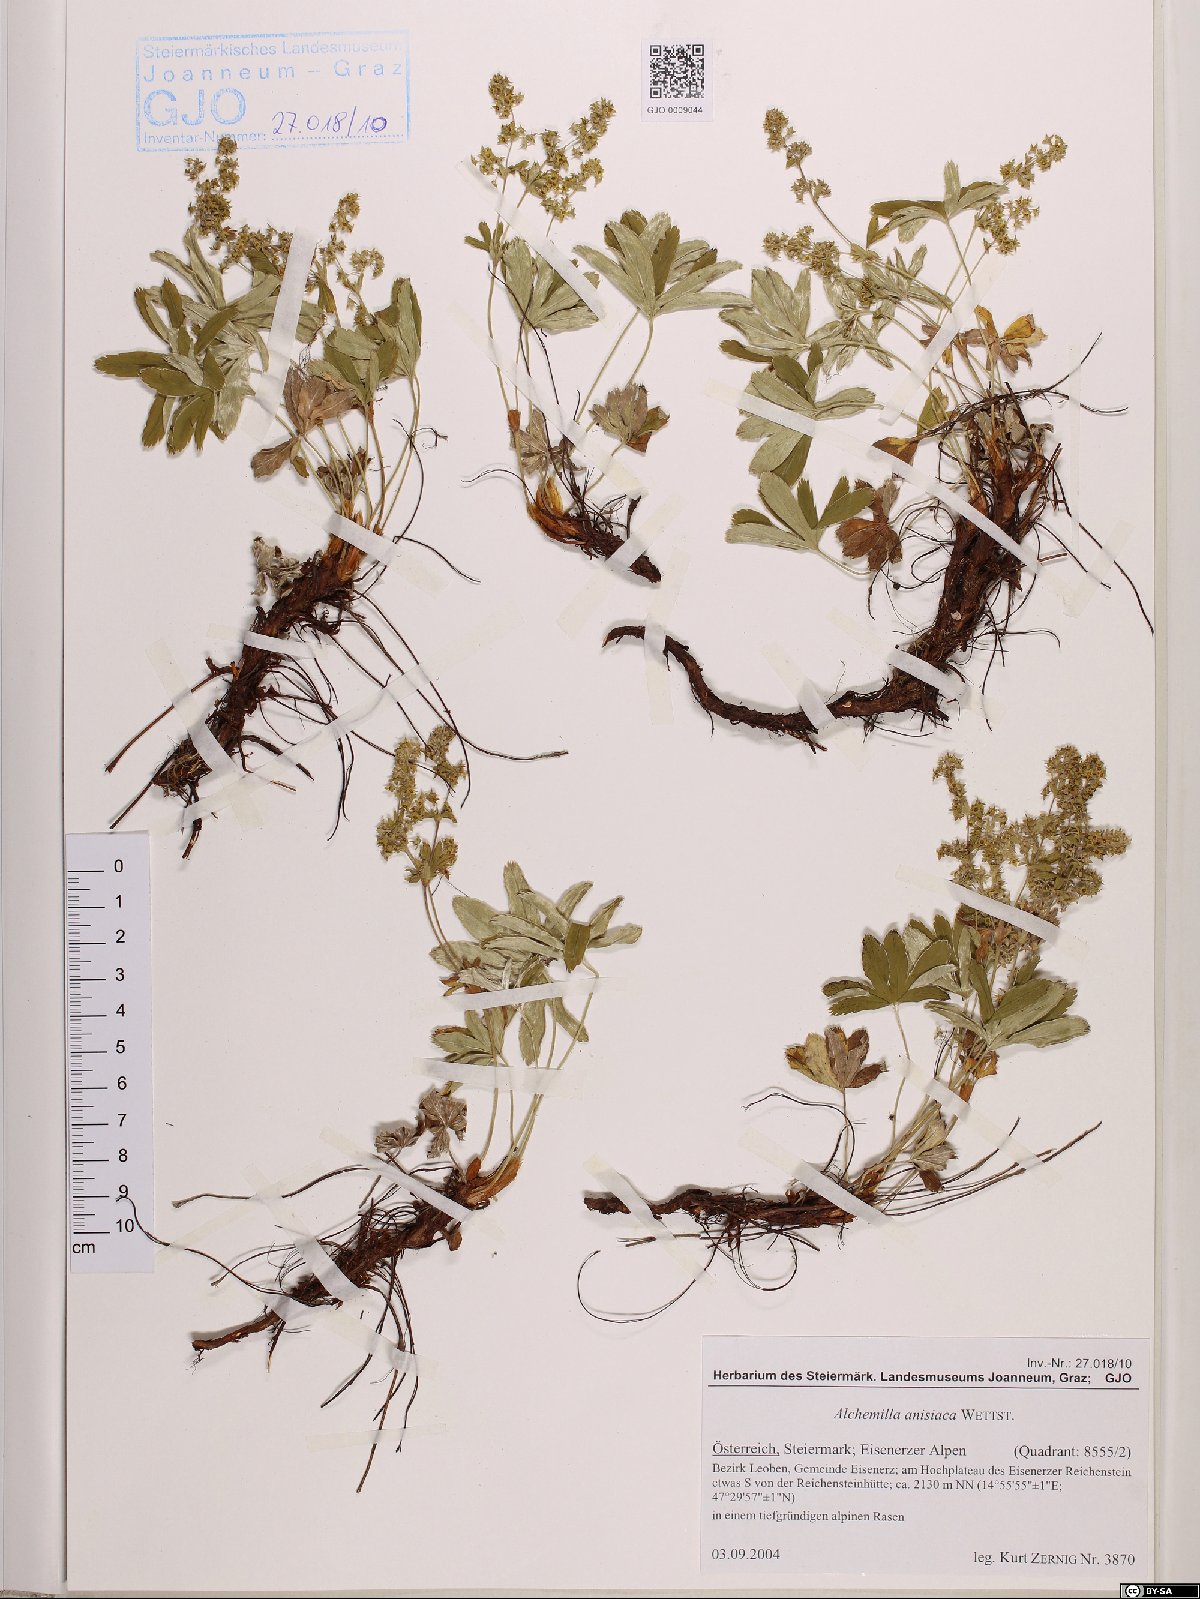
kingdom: Plantae
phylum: Tracheophyta
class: Magnoliopsida
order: Rosales
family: Rosaceae
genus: Alchemilla
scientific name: Alchemilla anisiaca
